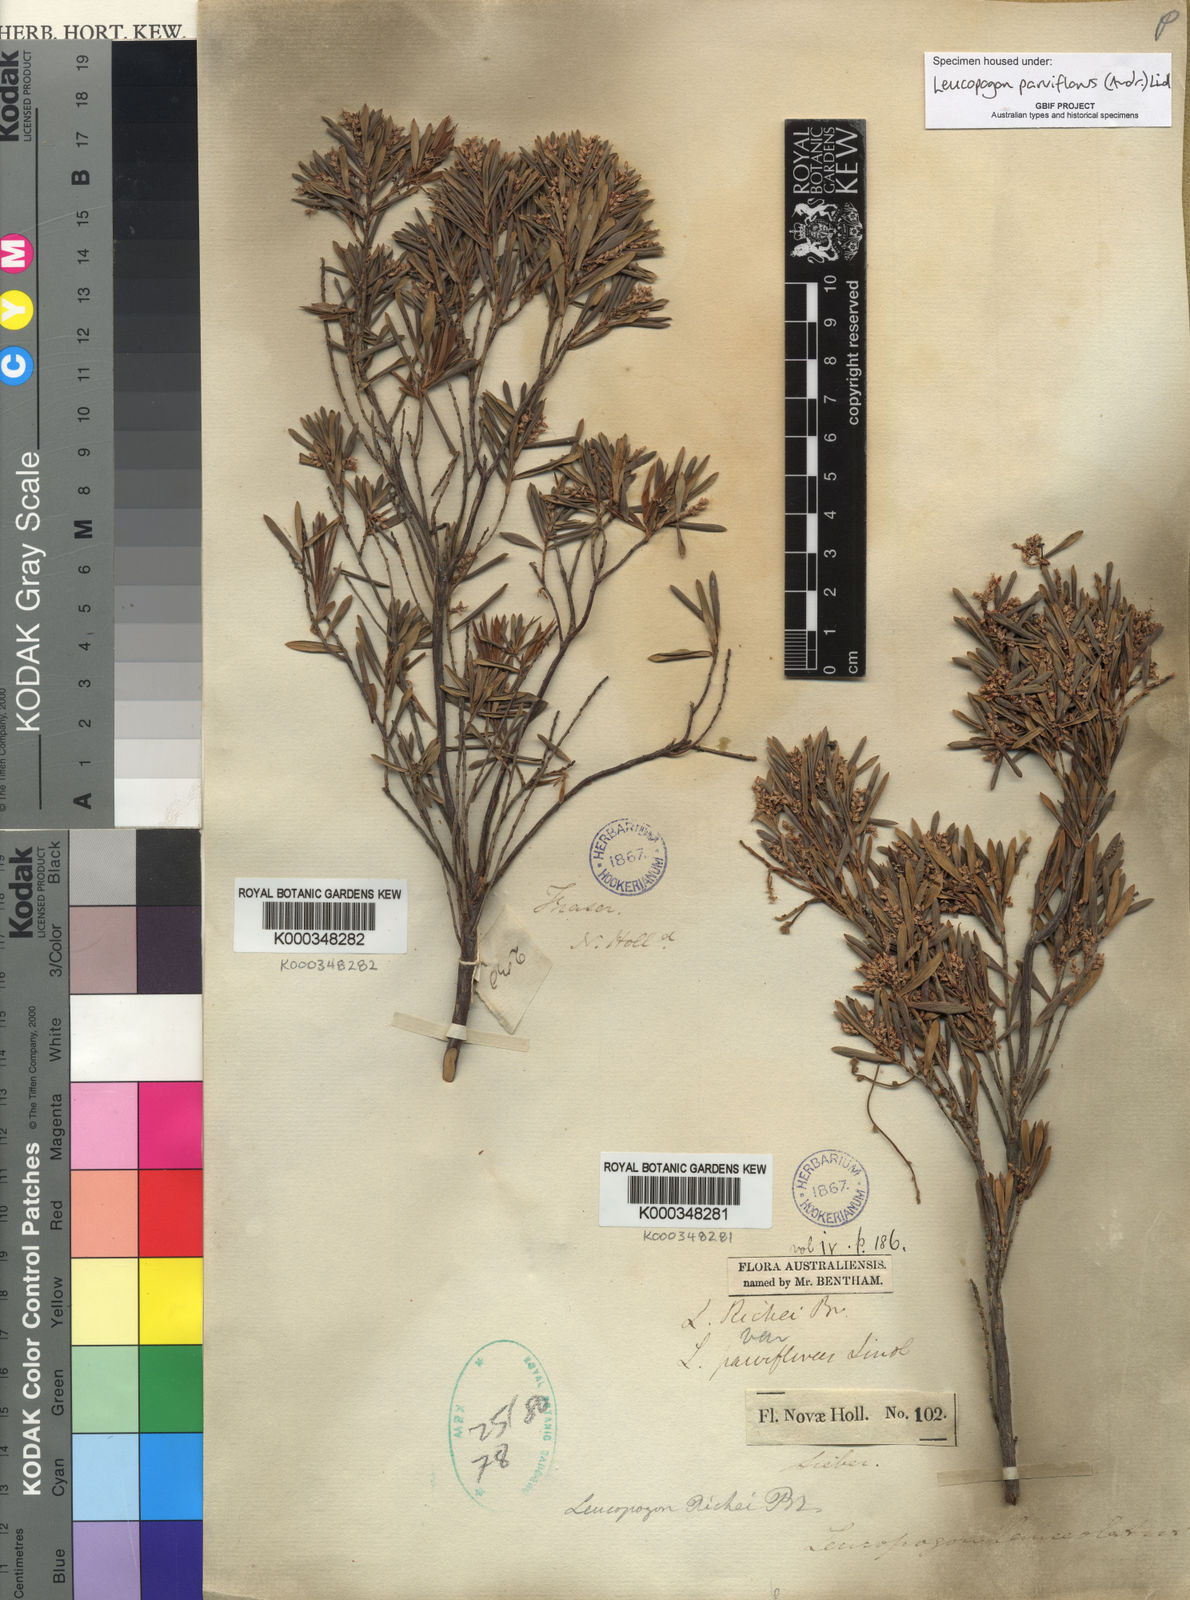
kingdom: Plantae
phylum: Tracheophyta
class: Magnoliopsida
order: Ericales
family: Ericaceae
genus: Leptecophylla
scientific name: Leptecophylla parvifolia
